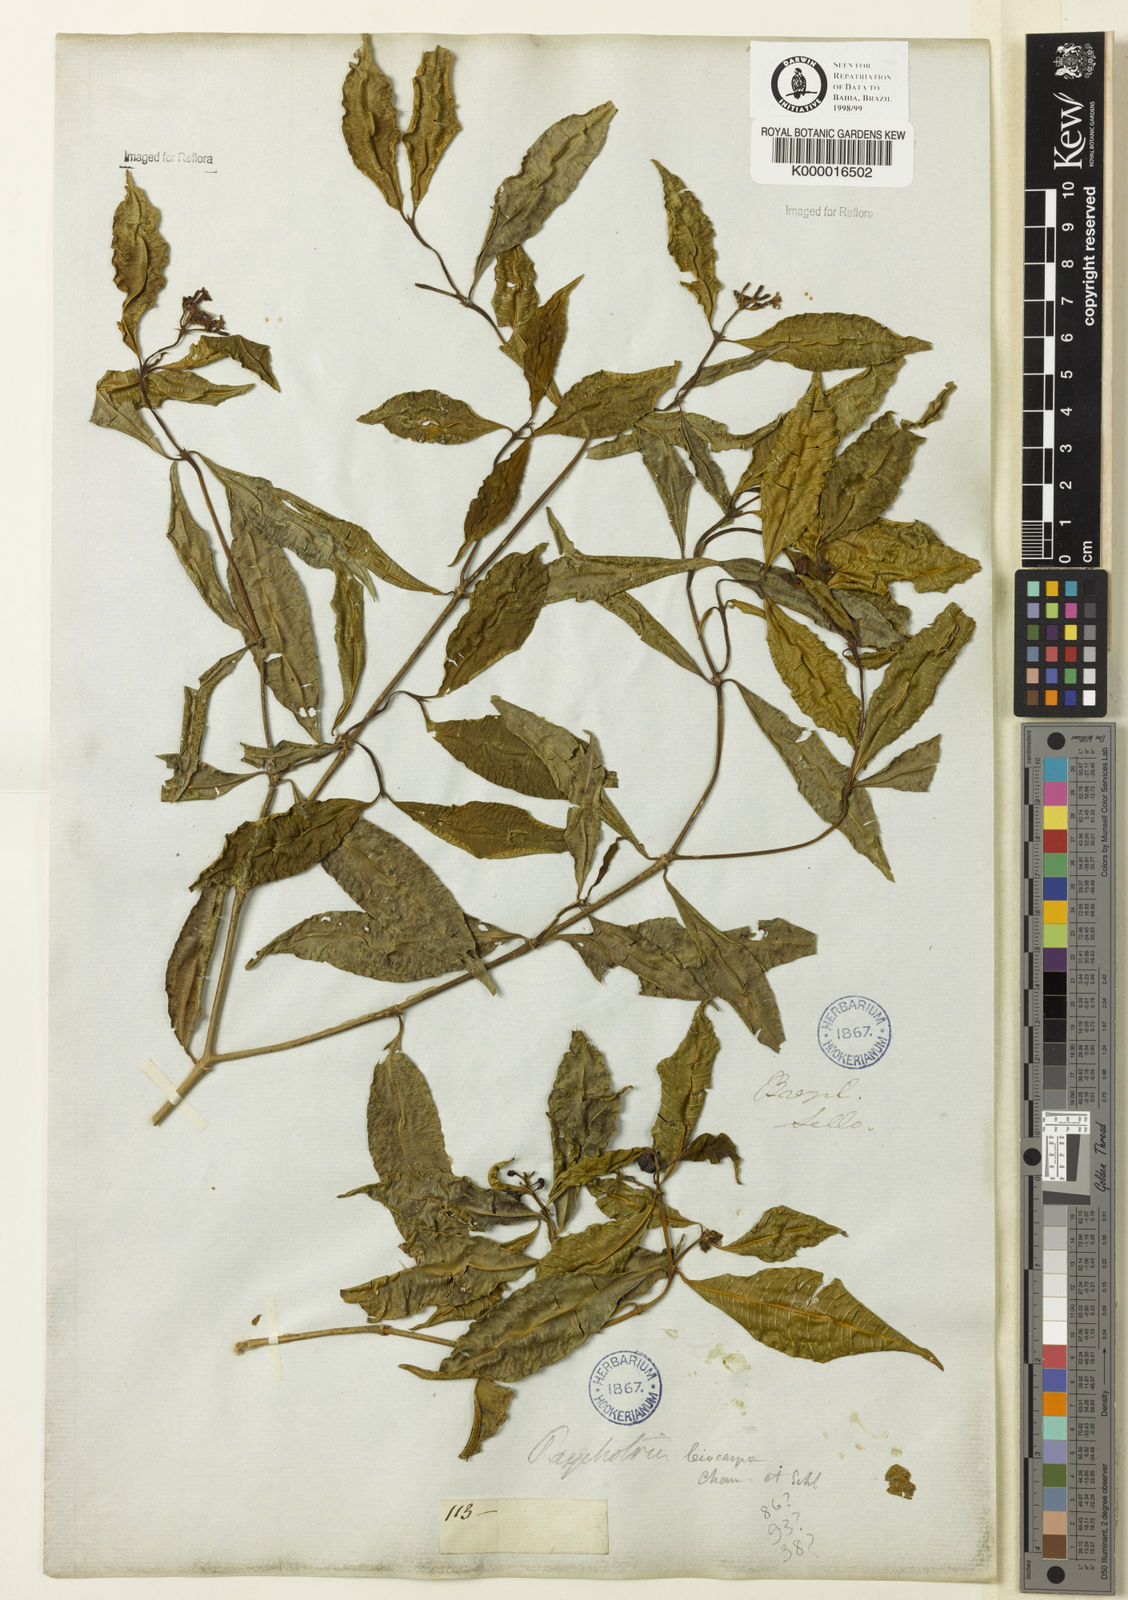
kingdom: Plantae
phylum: Tracheophyta
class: Magnoliopsida
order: Gentianales
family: Rubiaceae
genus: Psychotria
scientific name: Psychotria leiocarpa
